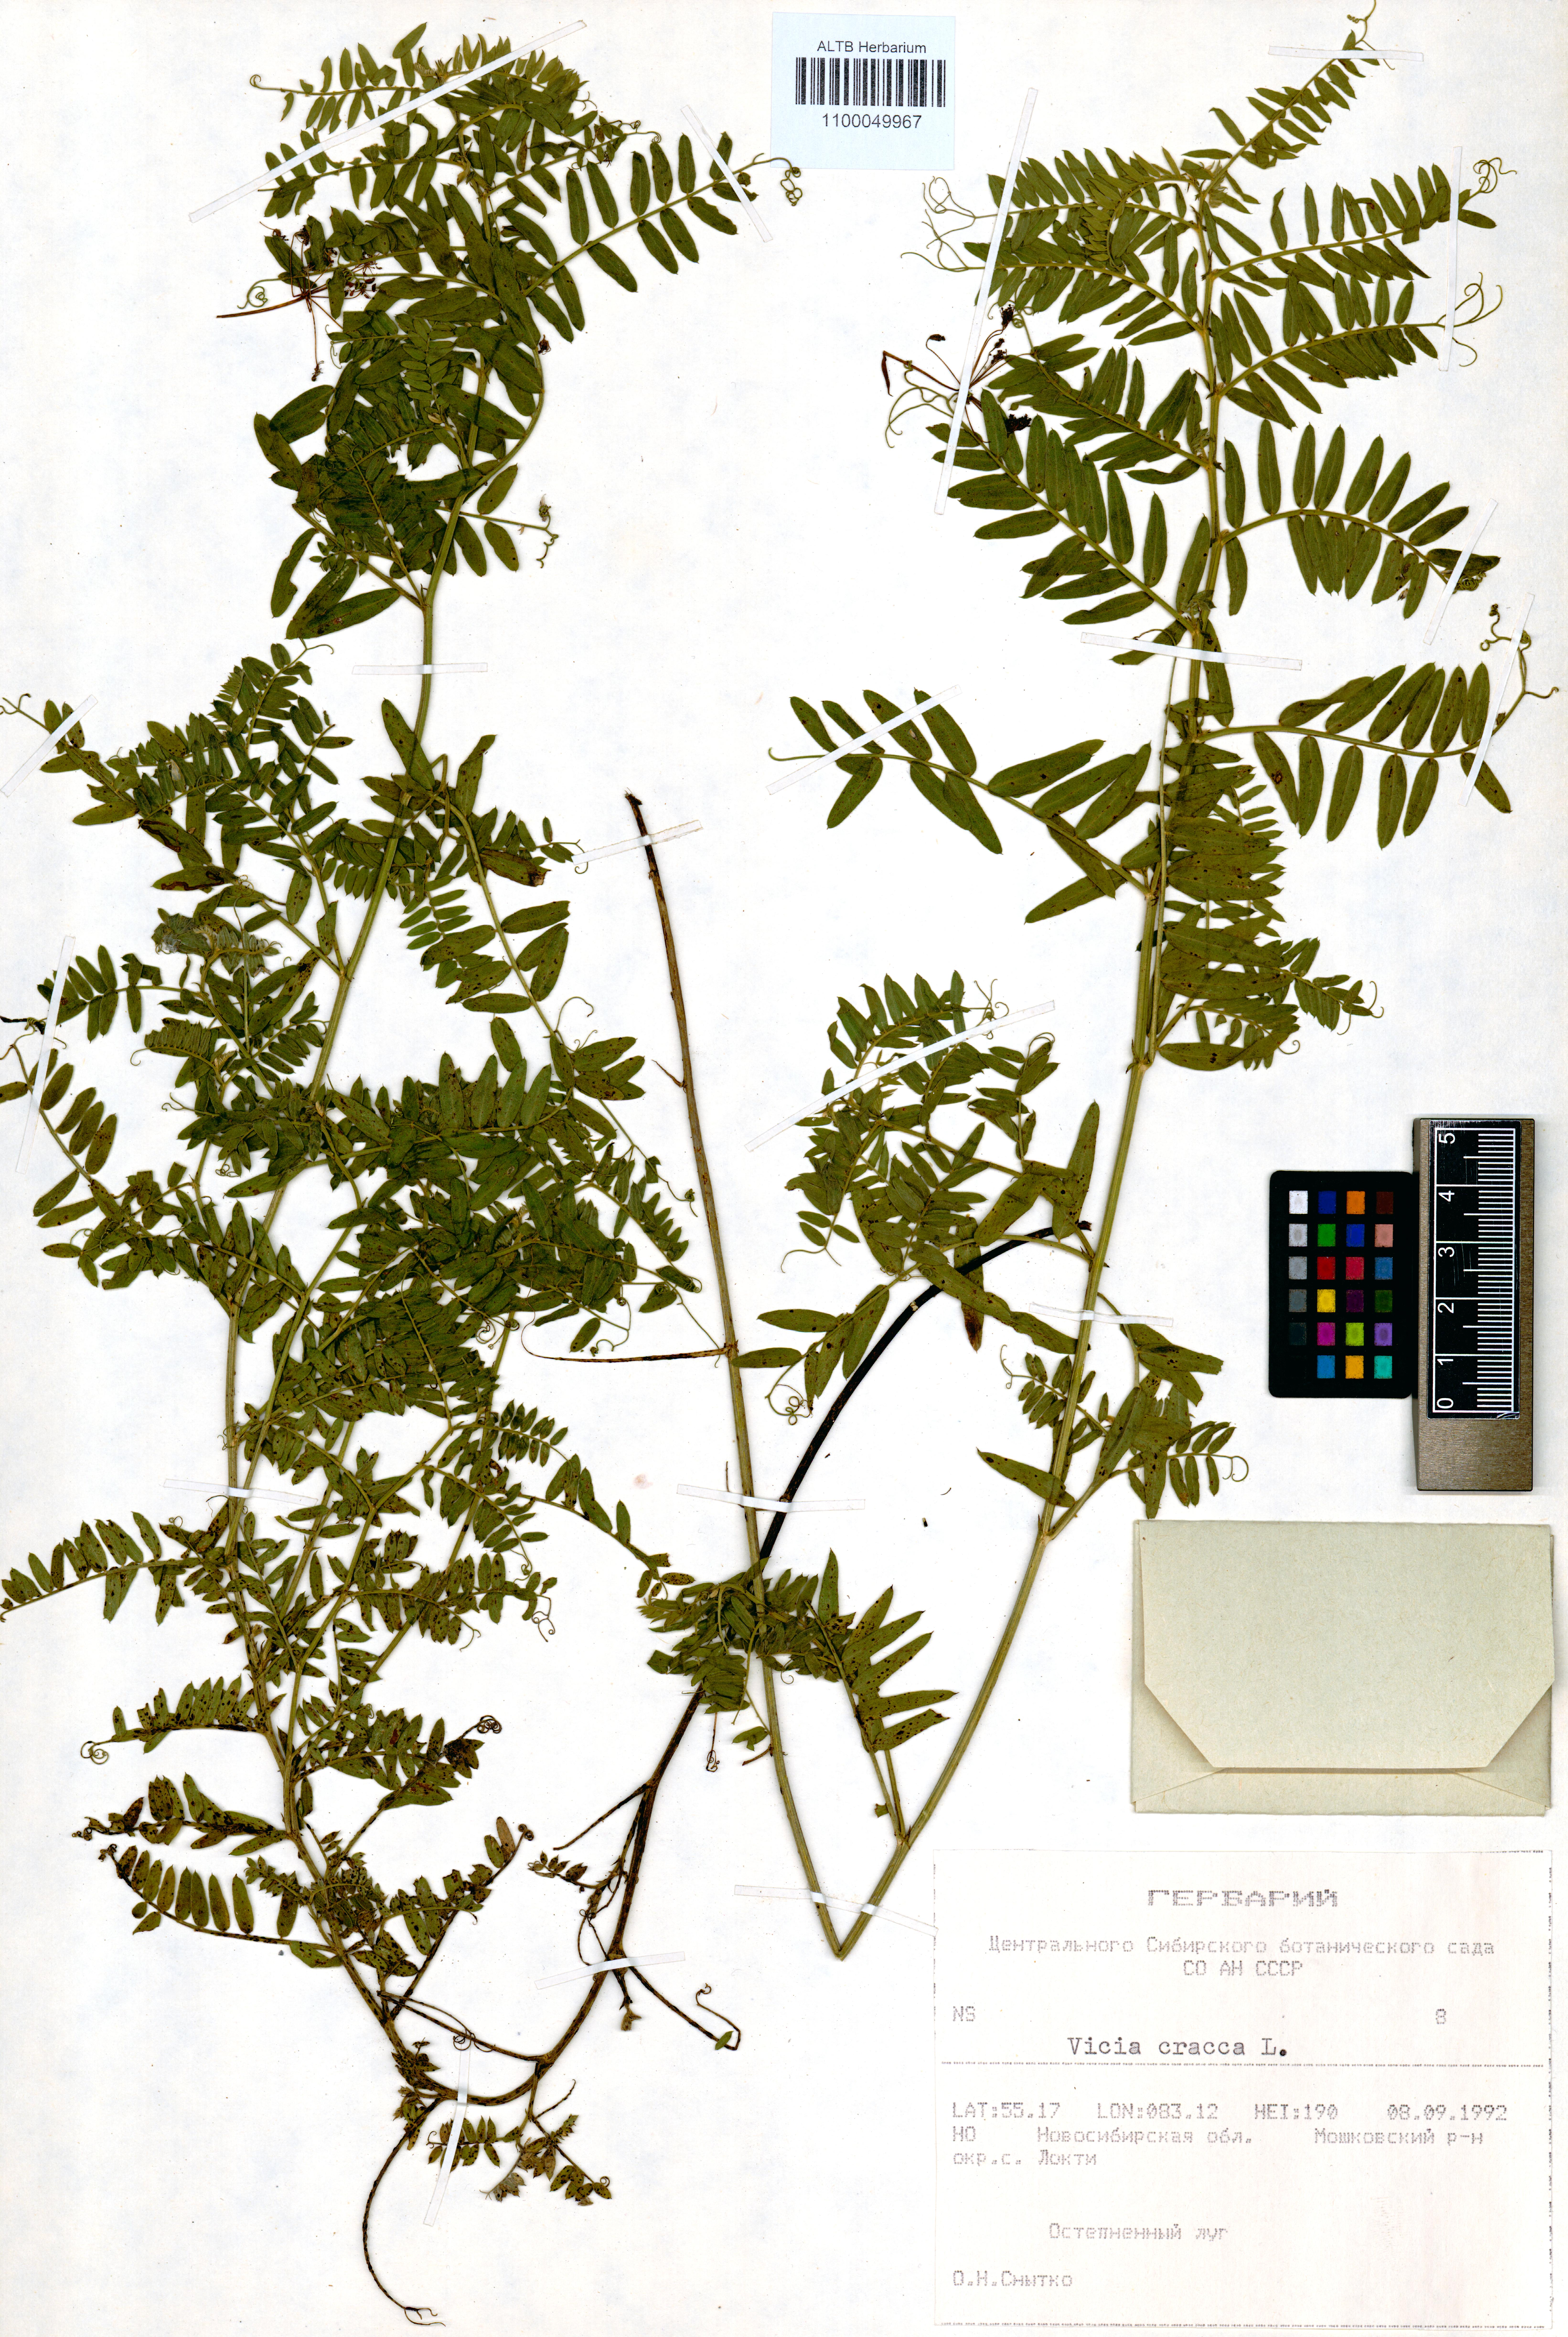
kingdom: Plantae
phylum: Tracheophyta
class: Magnoliopsida
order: Fabales
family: Fabaceae
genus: Vicia
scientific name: Vicia cracca
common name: Bird vetch
